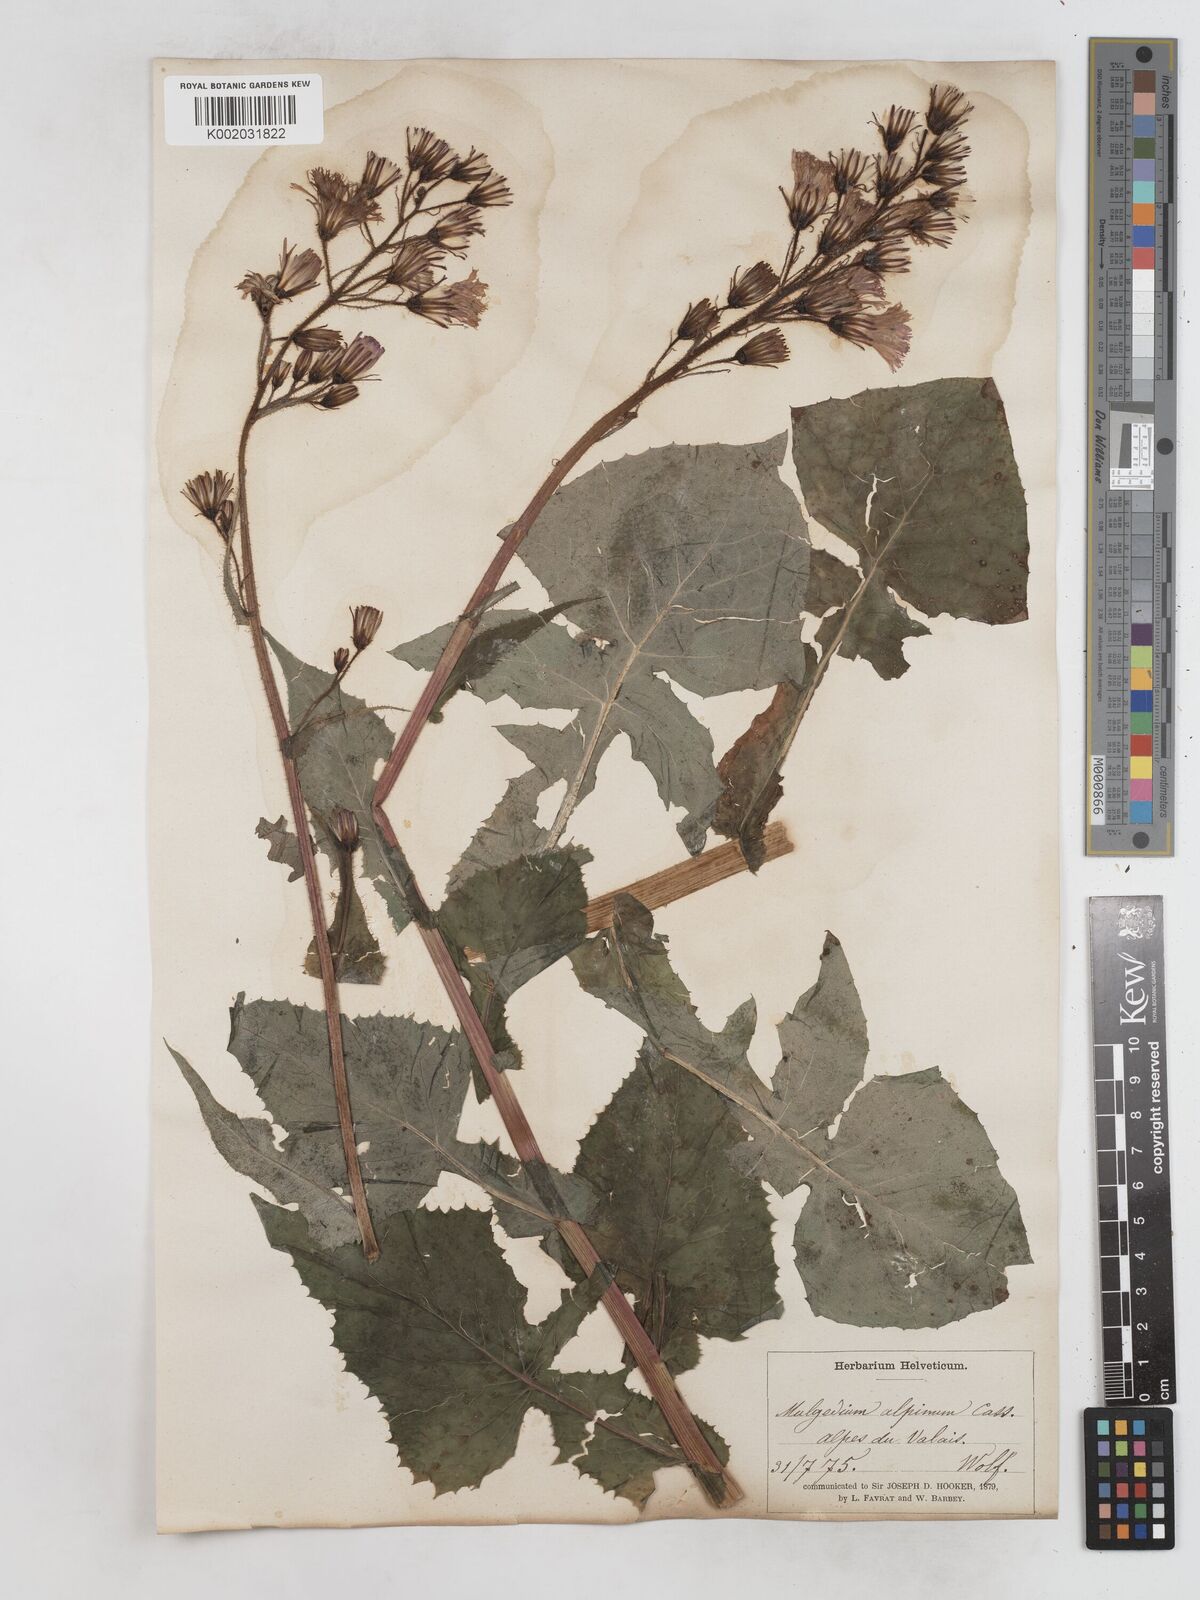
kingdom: Plantae
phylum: Tracheophyta
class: Magnoliopsida
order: Asterales
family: Asteraceae
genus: Cicerbita
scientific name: Cicerbita alpina
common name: Alpine blue-sow-thistle
